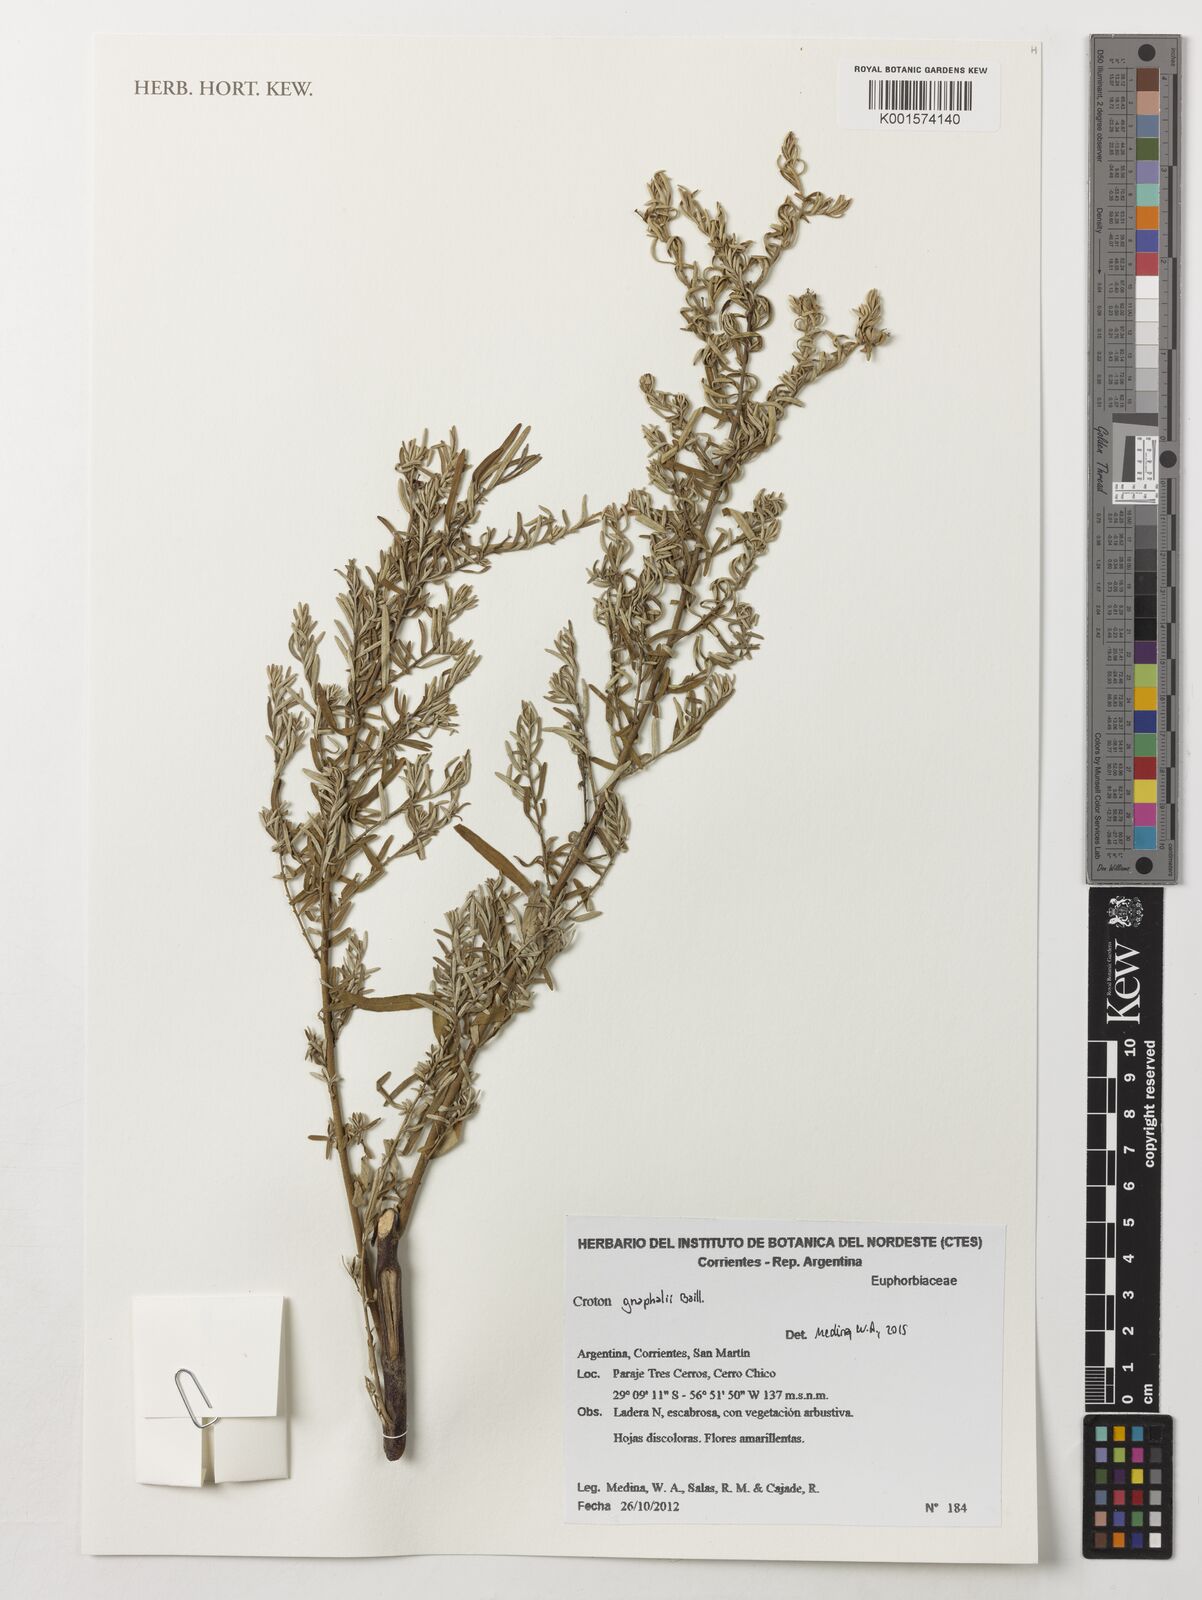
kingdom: Plantae
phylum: Tracheophyta
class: Magnoliopsida
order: Malpighiales
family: Euphorbiaceae
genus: Croton
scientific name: Croton gnaphalii
